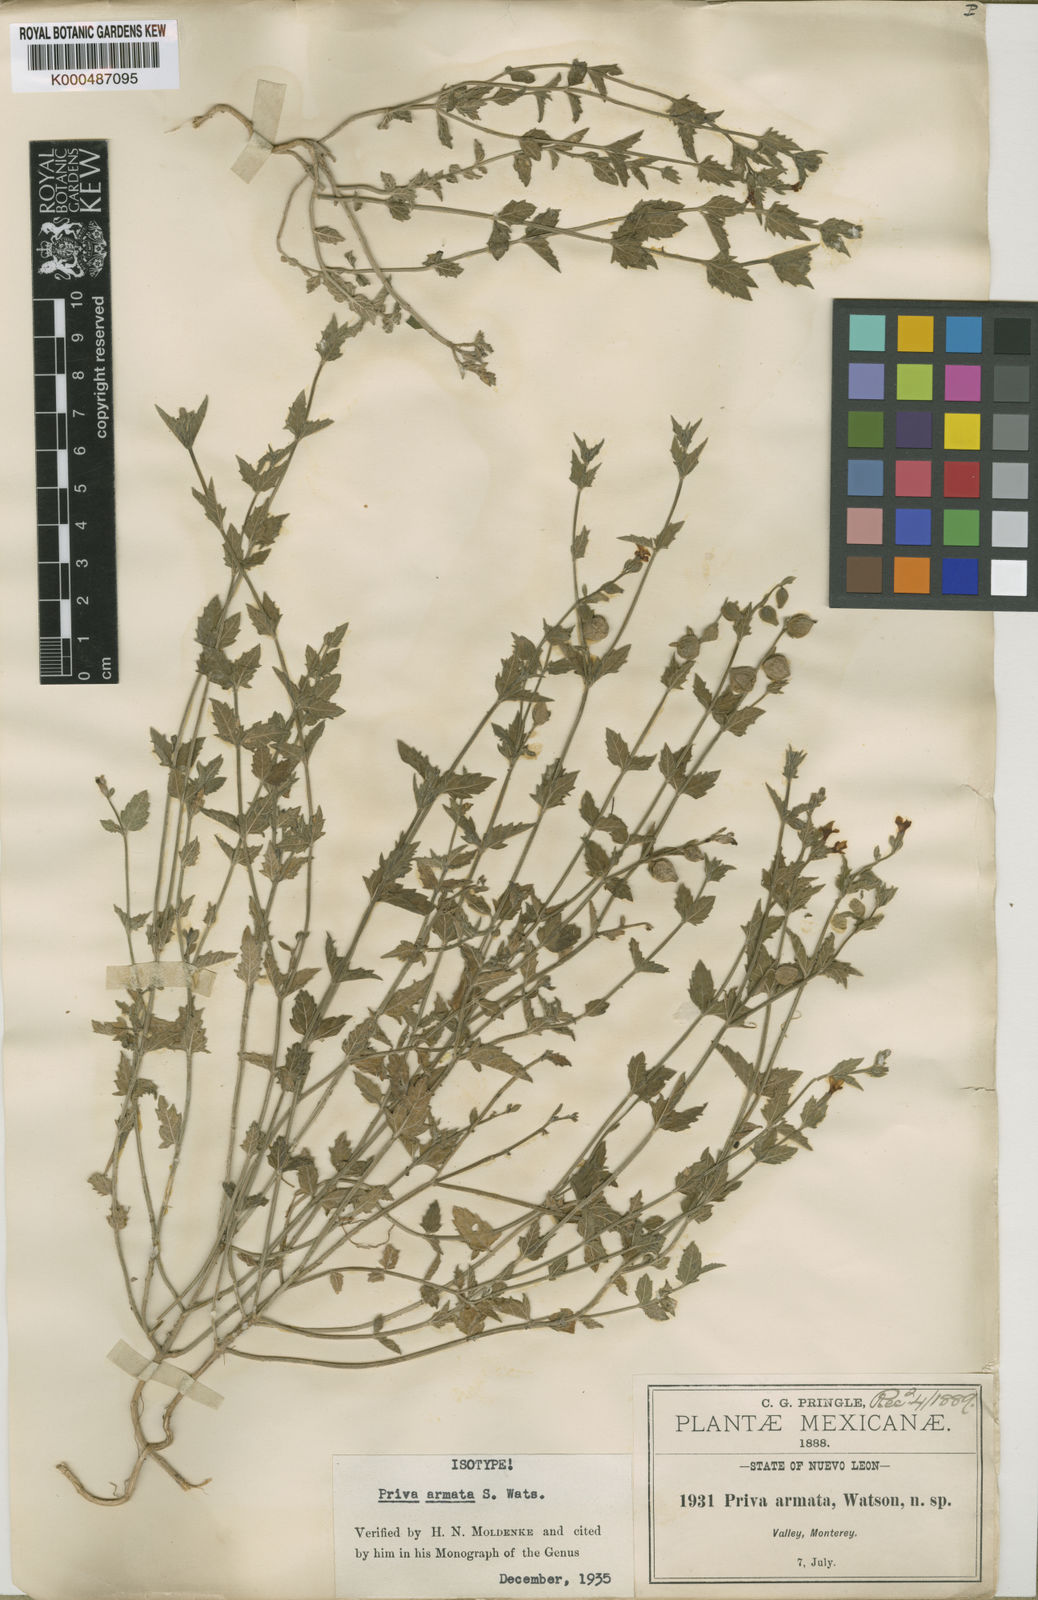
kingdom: Plantae
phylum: Tracheophyta
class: Magnoliopsida
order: Lamiales
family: Verbenaceae
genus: Priva
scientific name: Priva armata
